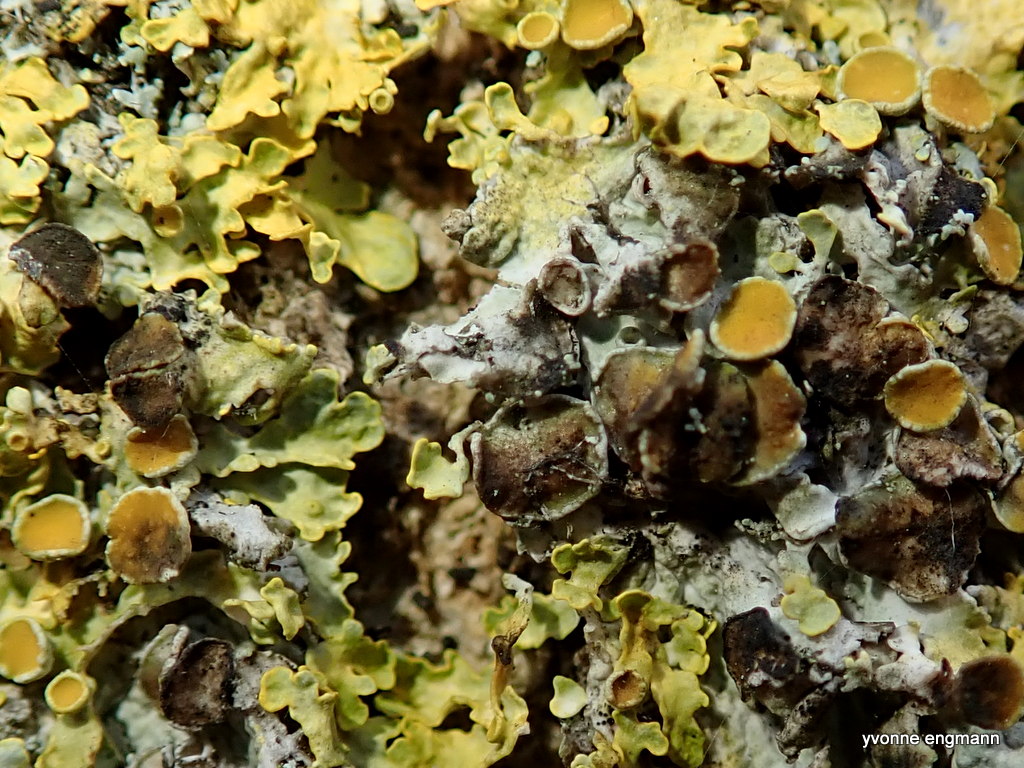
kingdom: Fungi
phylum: Ascomycota
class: Dothideomycetes
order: Mycosphaerellales
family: Teratosphaeriaceae
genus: Xanthoriicola
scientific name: Xanthoriicola physciae
